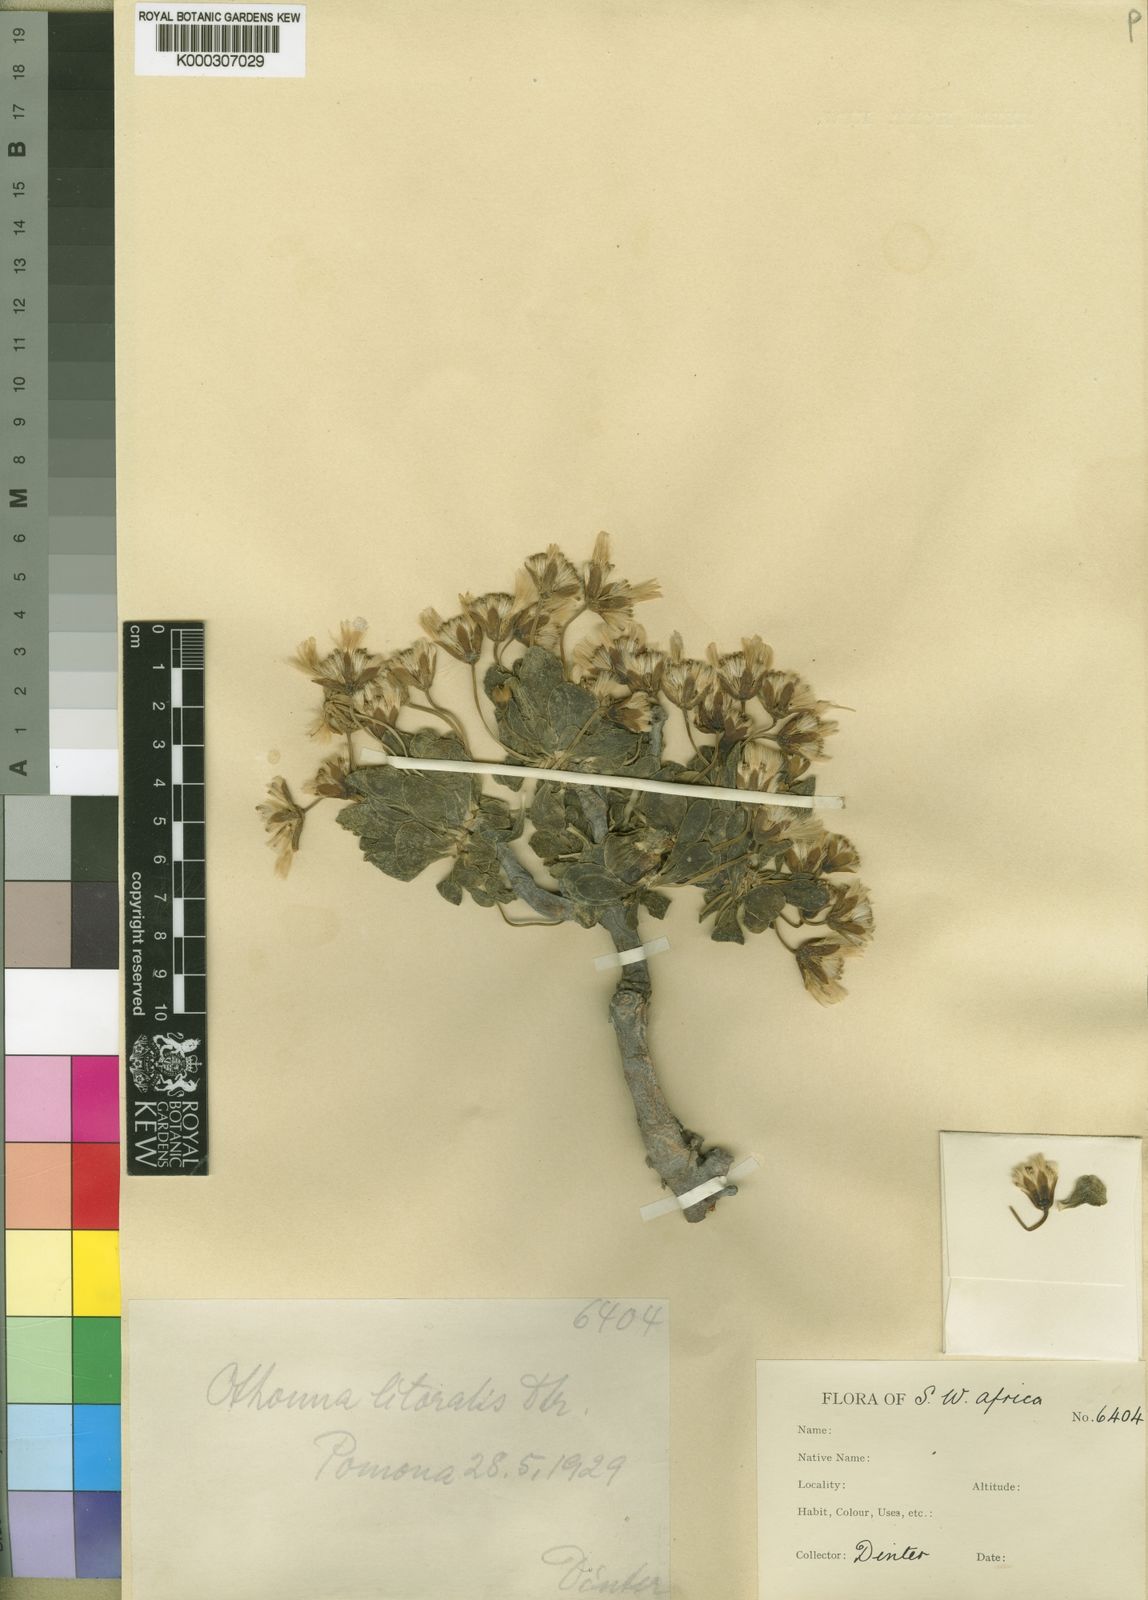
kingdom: Plantae
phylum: Tracheophyta
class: Magnoliopsida
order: Asterales
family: Asteraceae
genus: Othonna
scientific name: Othonna lasiocarpa
